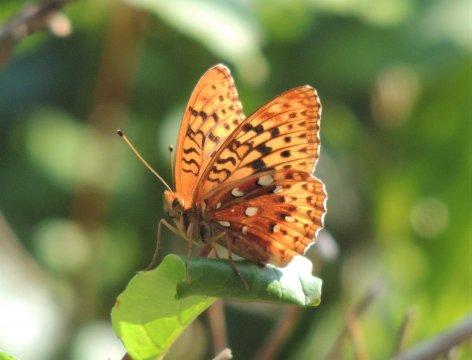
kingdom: Animalia
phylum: Arthropoda
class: Insecta
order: Lepidoptera
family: Nymphalidae
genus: Speyeria
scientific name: Speyeria cybele
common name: Great Spangled Fritillary
